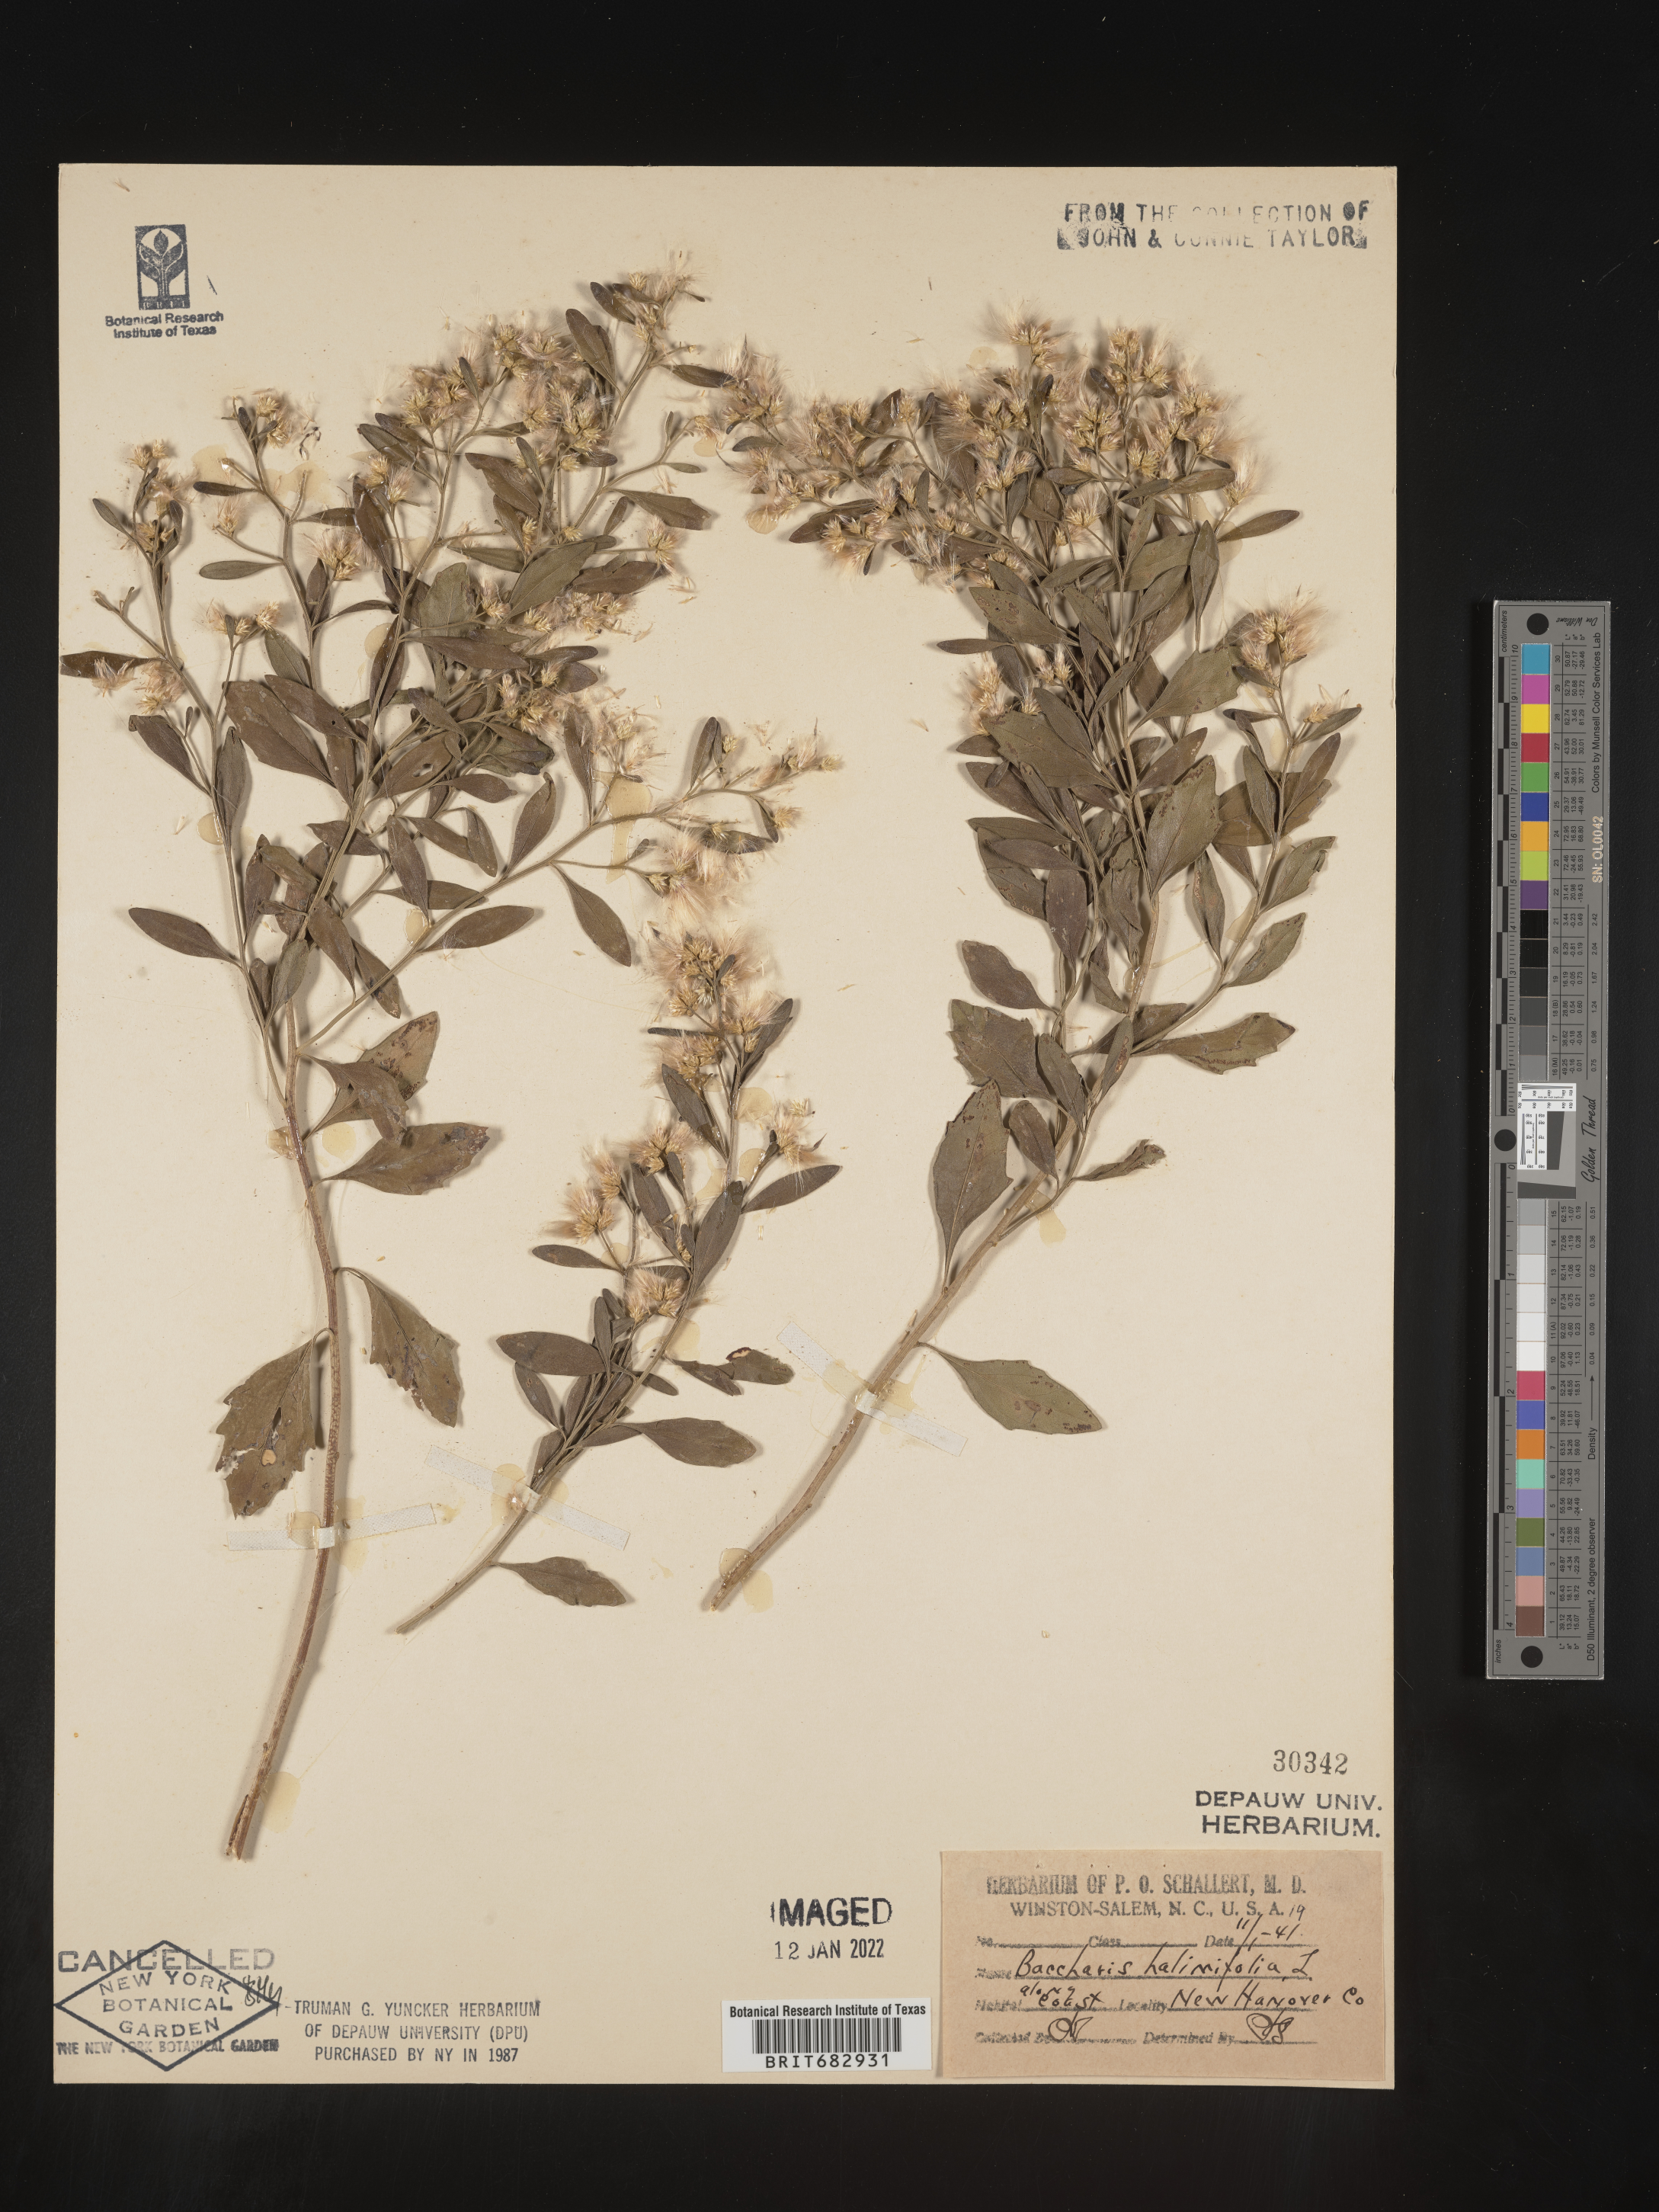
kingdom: Plantae
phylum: Tracheophyta
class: Magnoliopsida
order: Asterales
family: Asteraceae
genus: Nidorella
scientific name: Nidorella ivifolia
